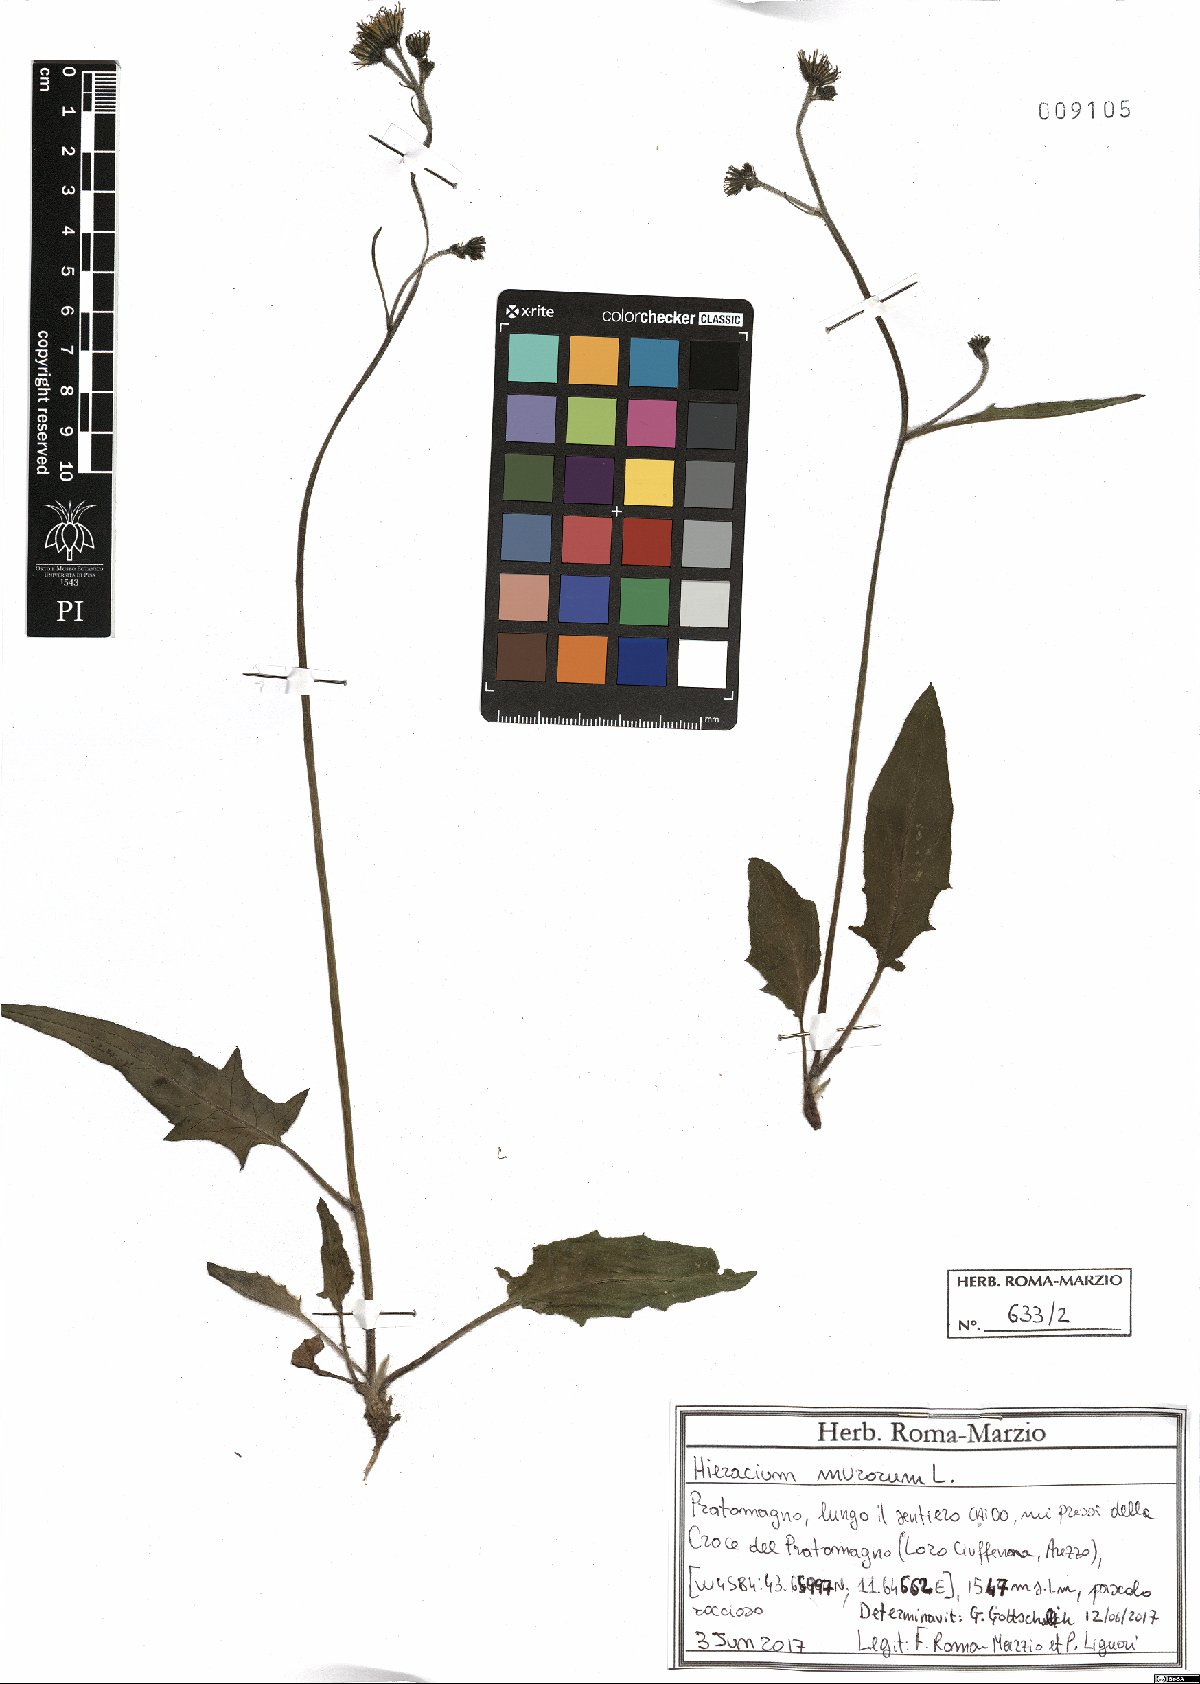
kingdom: Plantae
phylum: Tracheophyta
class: Magnoliopsida
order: Asterales
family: Asteraceae
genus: Hieracium
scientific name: Hieracium murorum
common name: Wall hawkweed
